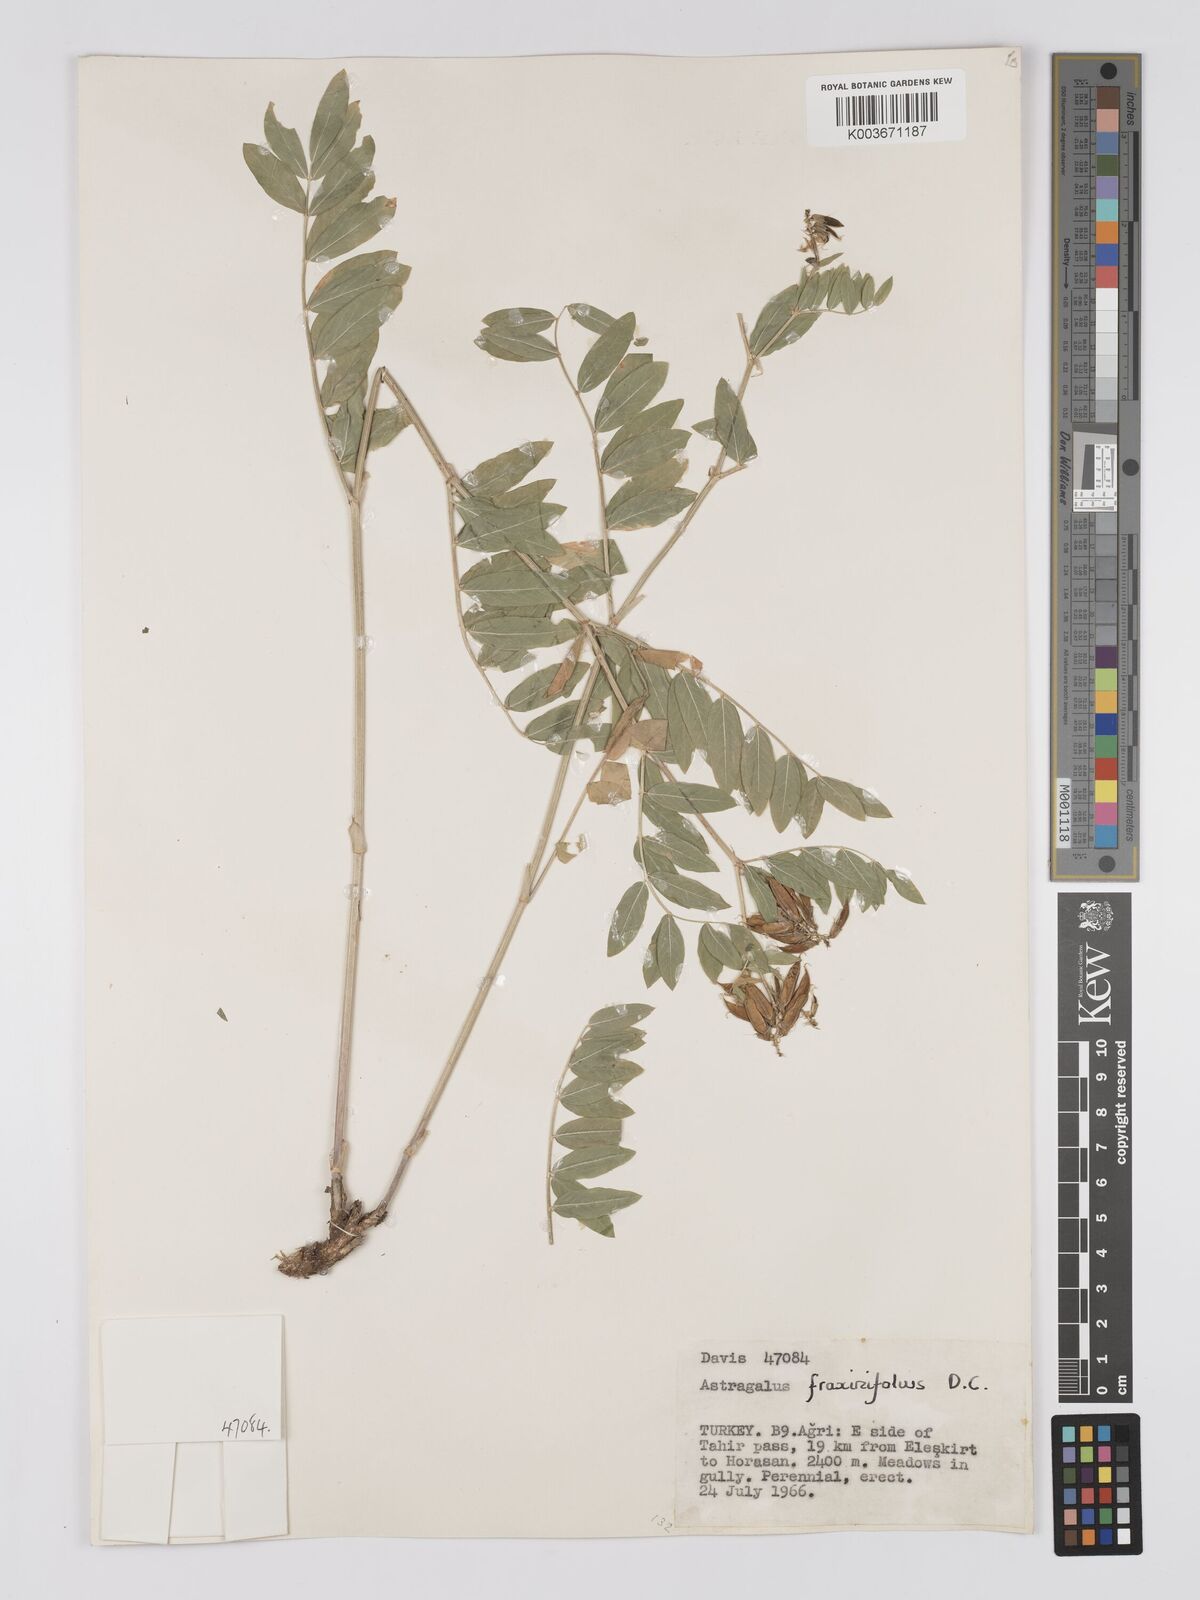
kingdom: Plantae
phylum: Tracheophyta
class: Magnoliopsida
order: Fabales
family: Fabaceae
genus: Astragalus
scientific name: Astragalus fraxinifolius
